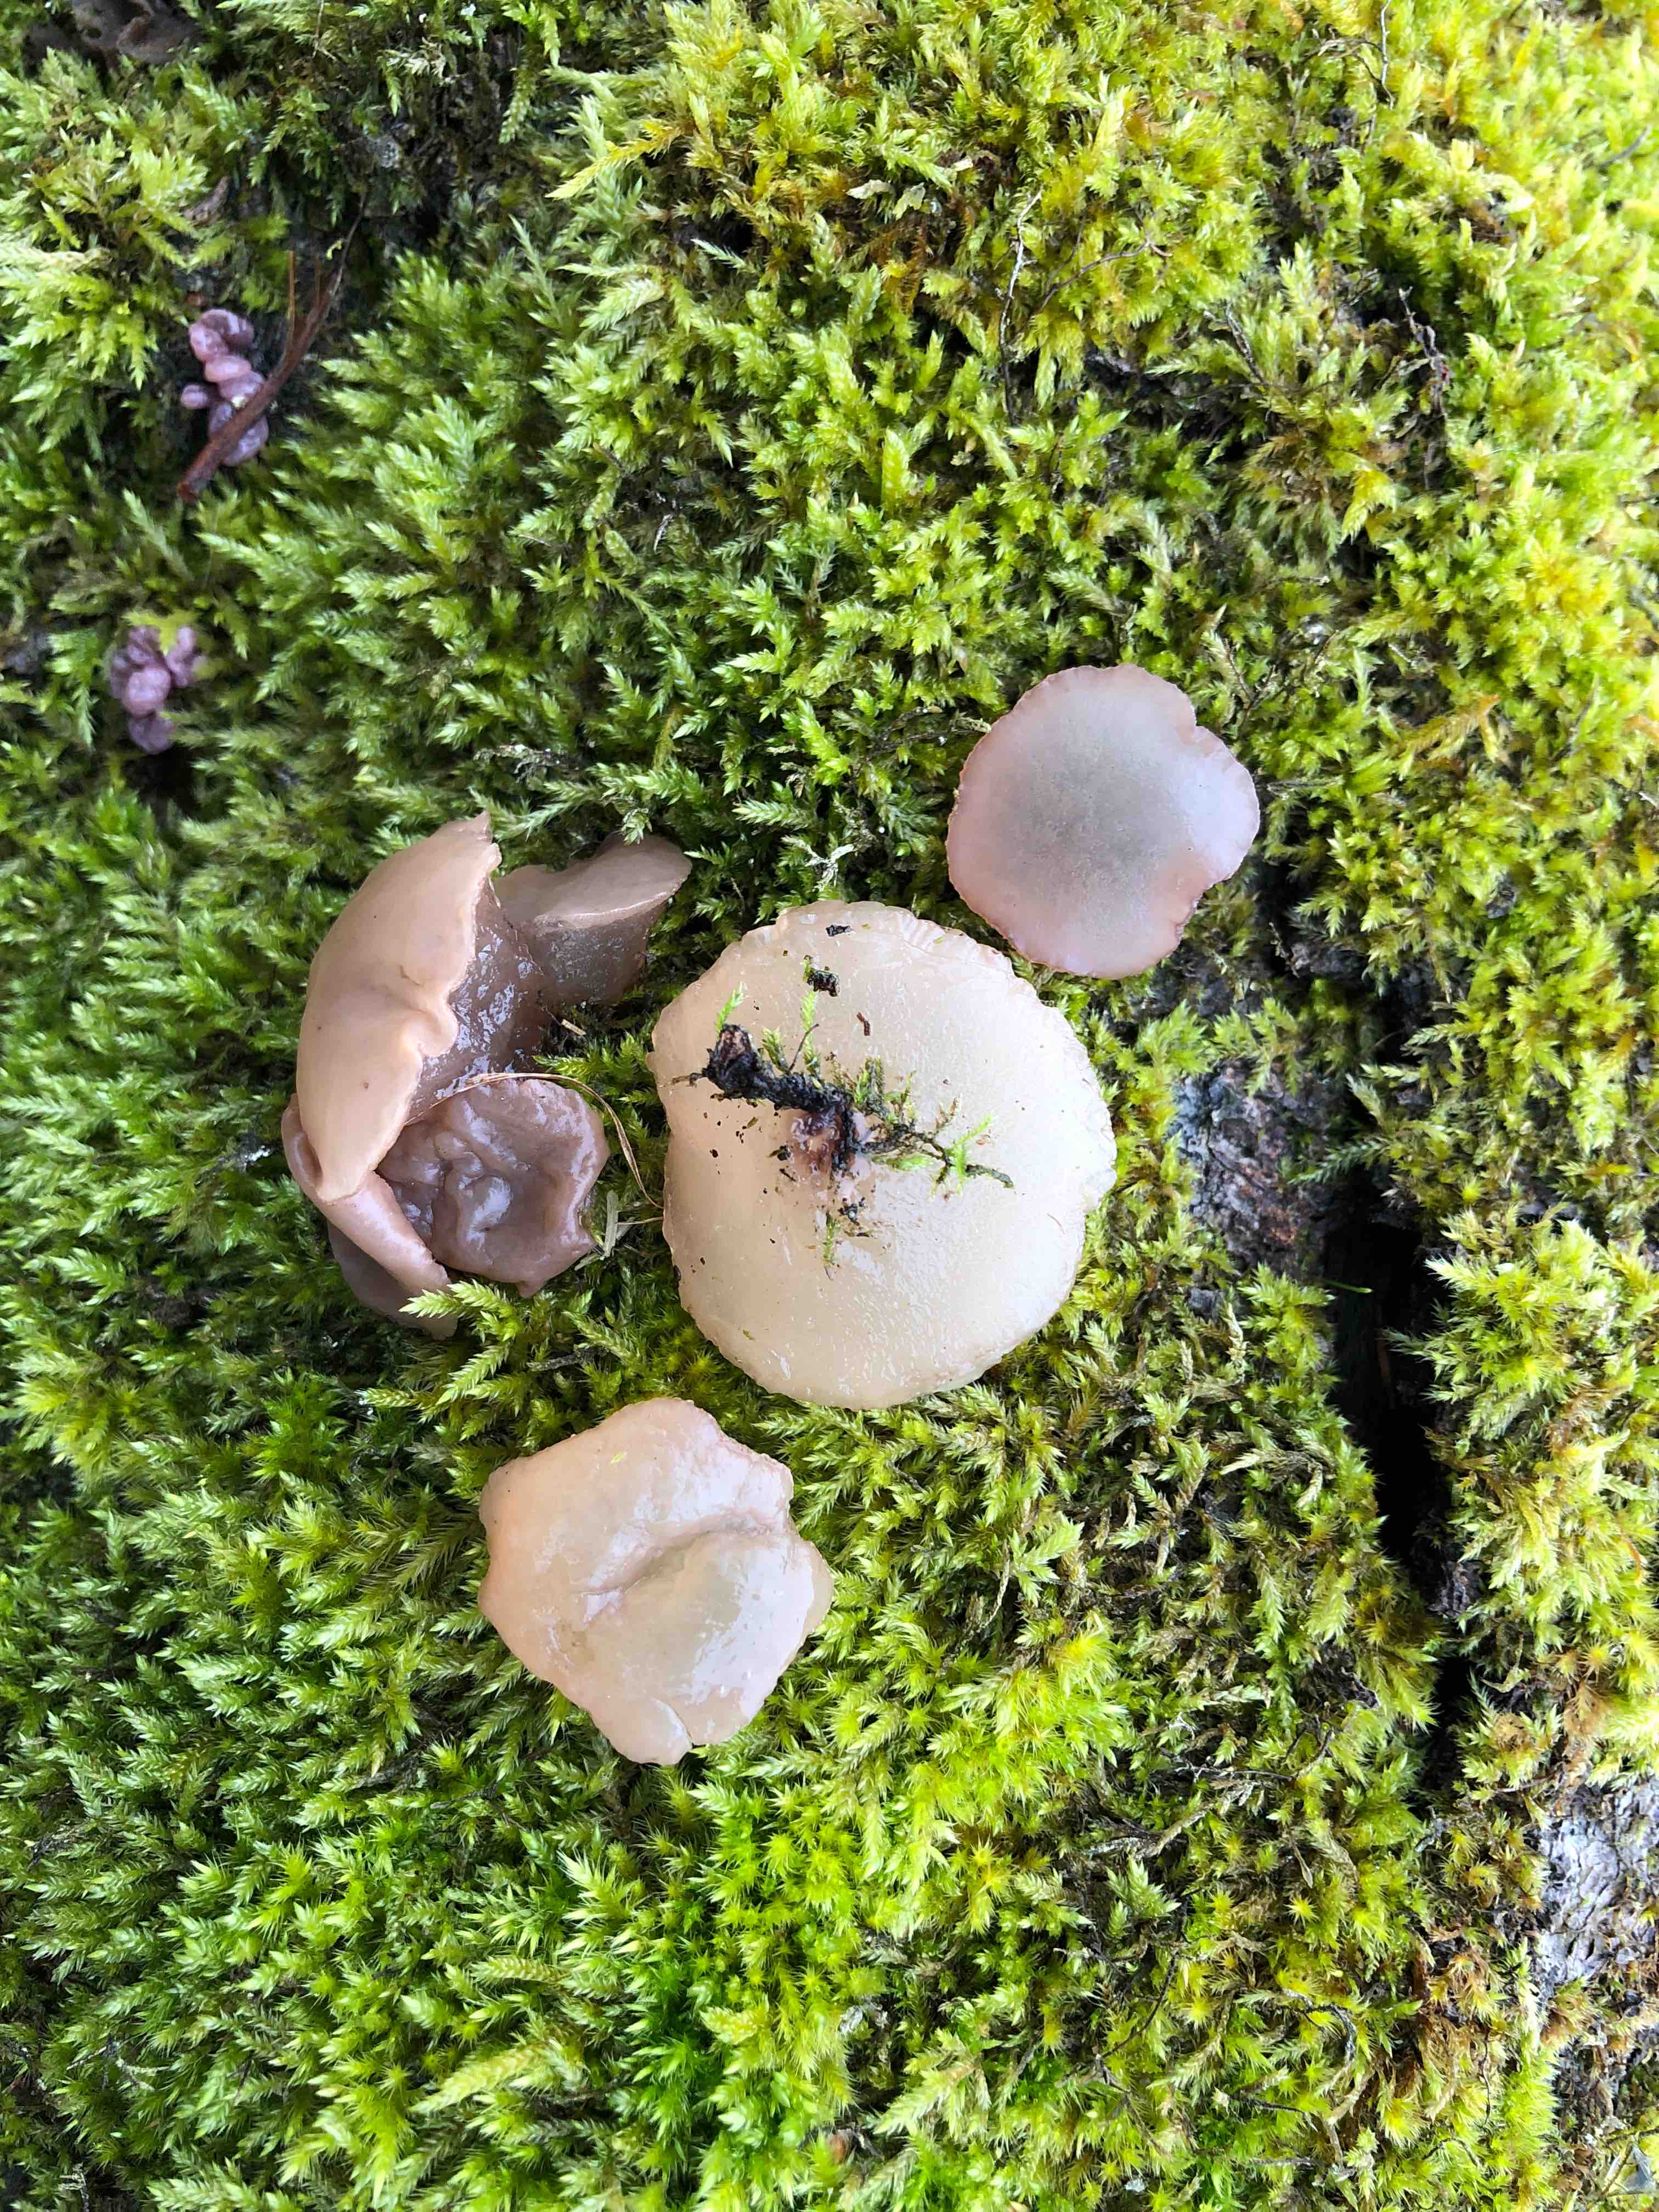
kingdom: Fungi
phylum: Ascomycota
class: Leotiomycetes
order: Helotiales
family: Gelatinodiscaceae
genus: Neobulgaria
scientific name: Neobulgaria pura
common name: bleg bævreskive
